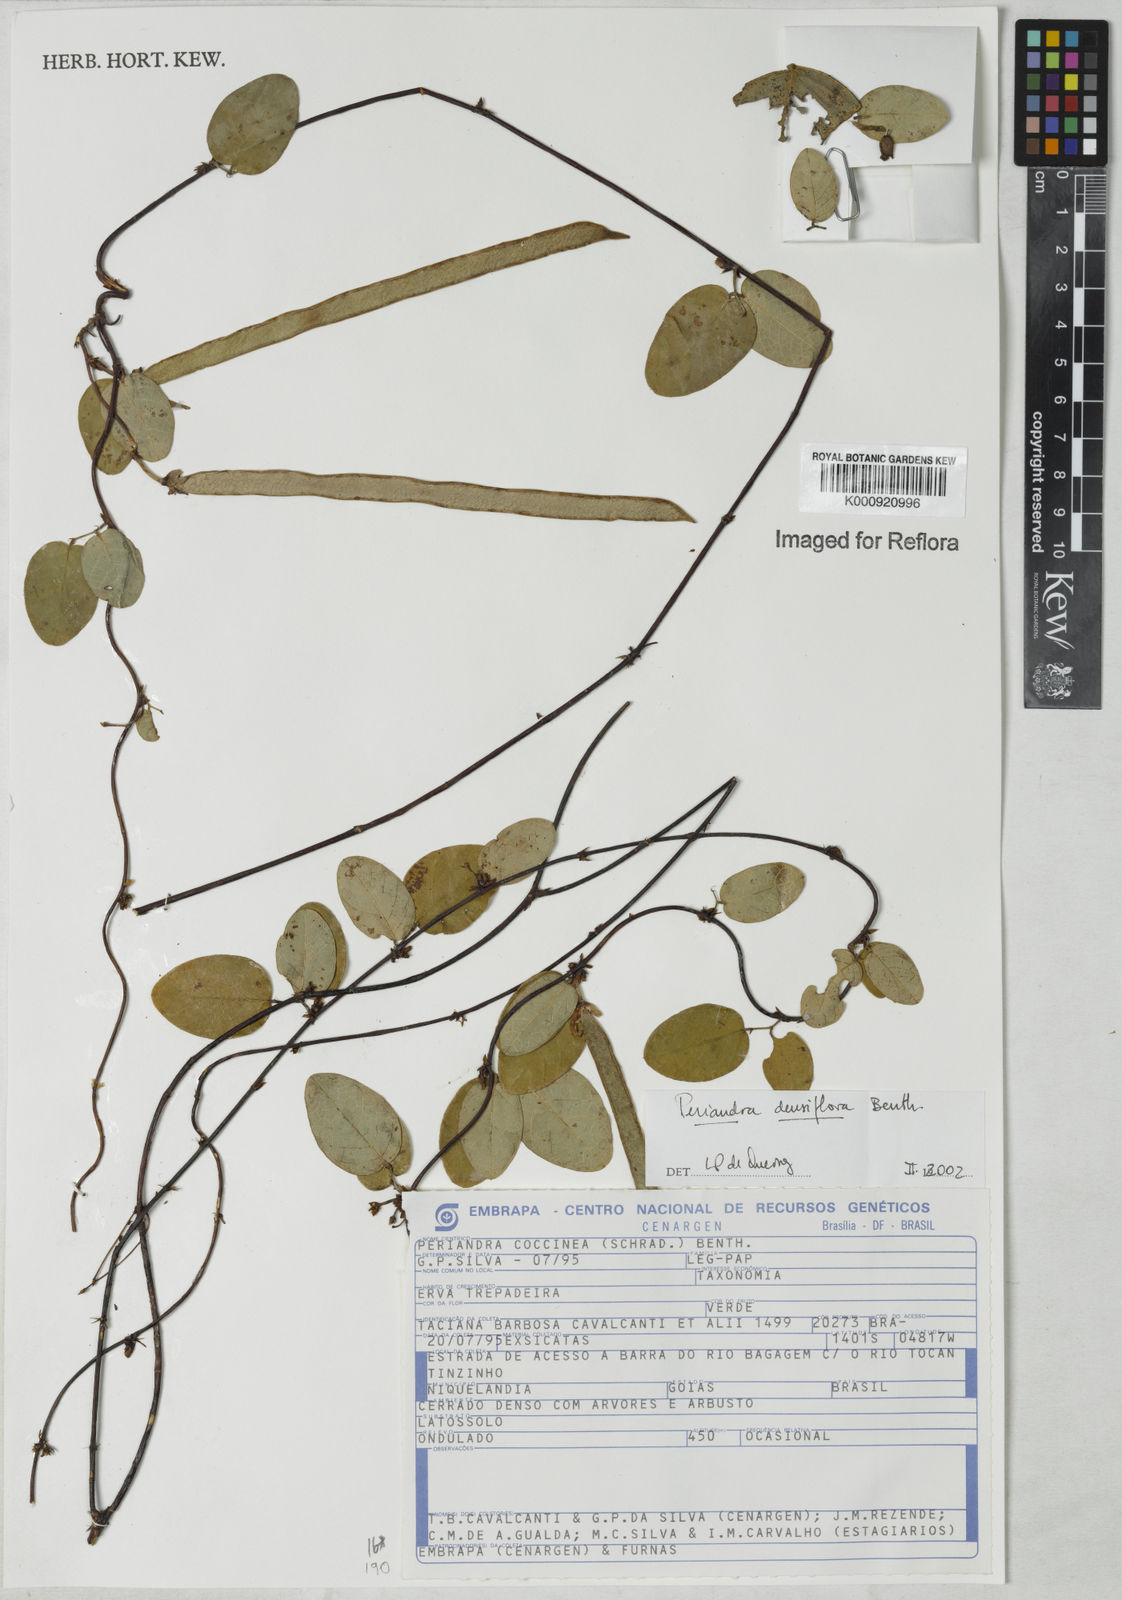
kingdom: Plantae
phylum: Tracheophyta
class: Magnoliopsida
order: Fabales
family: Fabaceae
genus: Periandra
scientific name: Periandra densiflora
